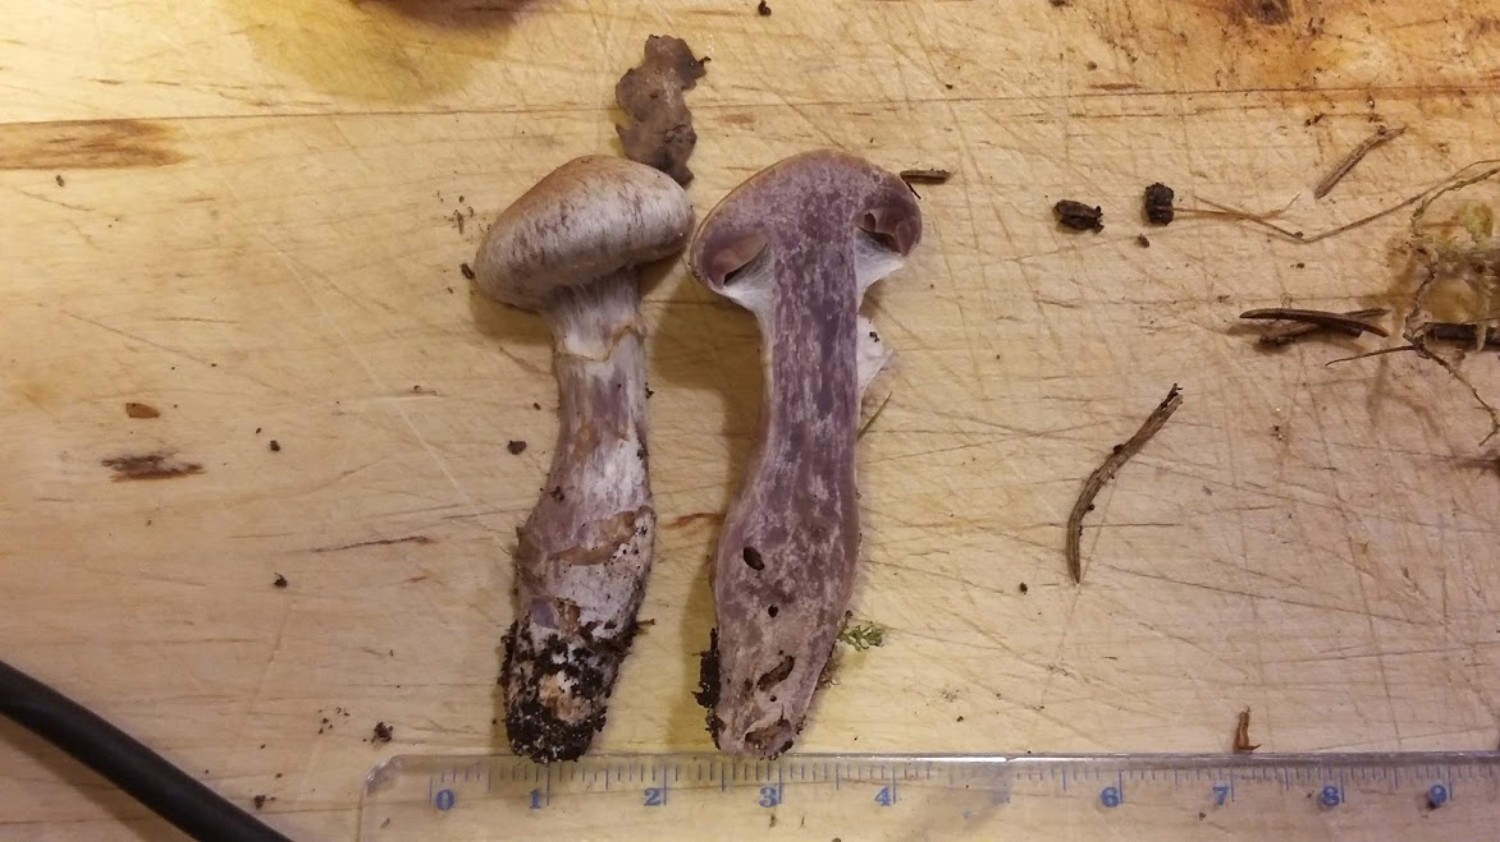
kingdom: Fungi
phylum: Basidiomycota
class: Agaricomycetes
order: Agaricales
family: Cortinariaceae
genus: Cortinarius
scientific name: Cortinarius
